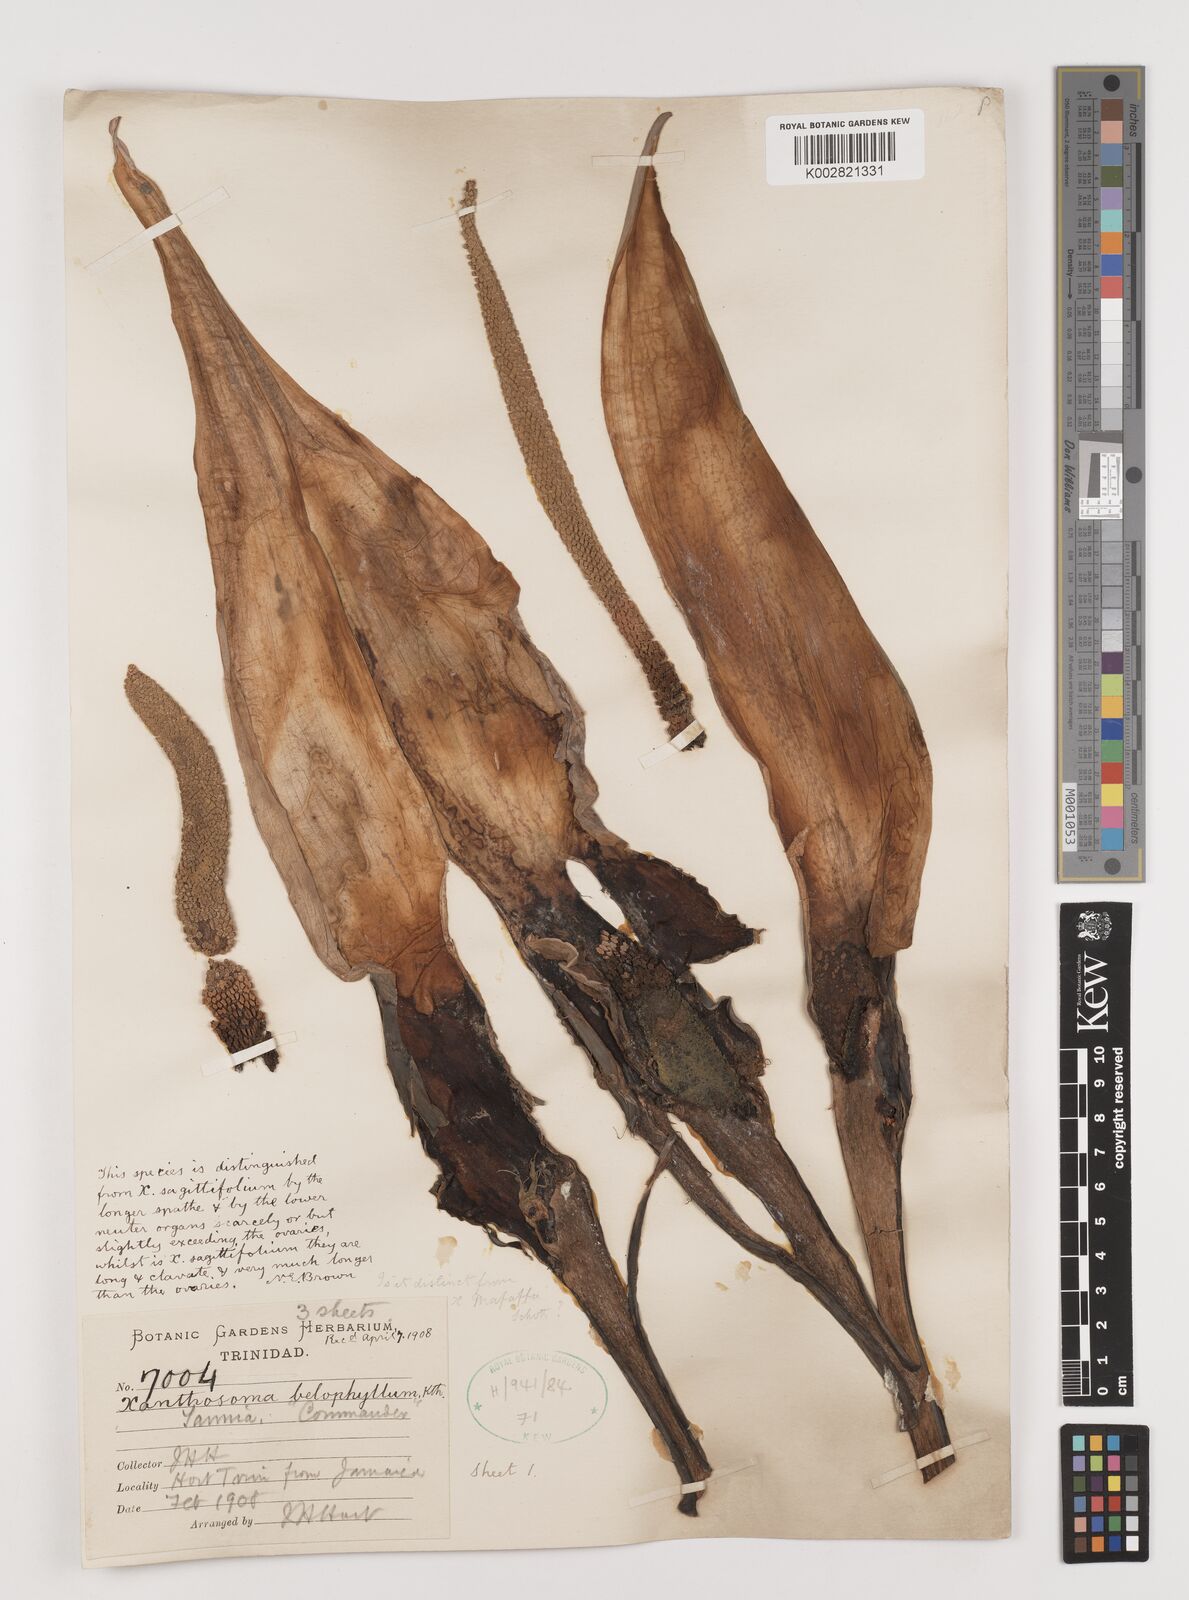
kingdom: Plantae
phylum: Tracheophyta
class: Liliopsida
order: Alismatales
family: Araceae
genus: Xanthosoma
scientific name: Xanthosoma belophyllum
